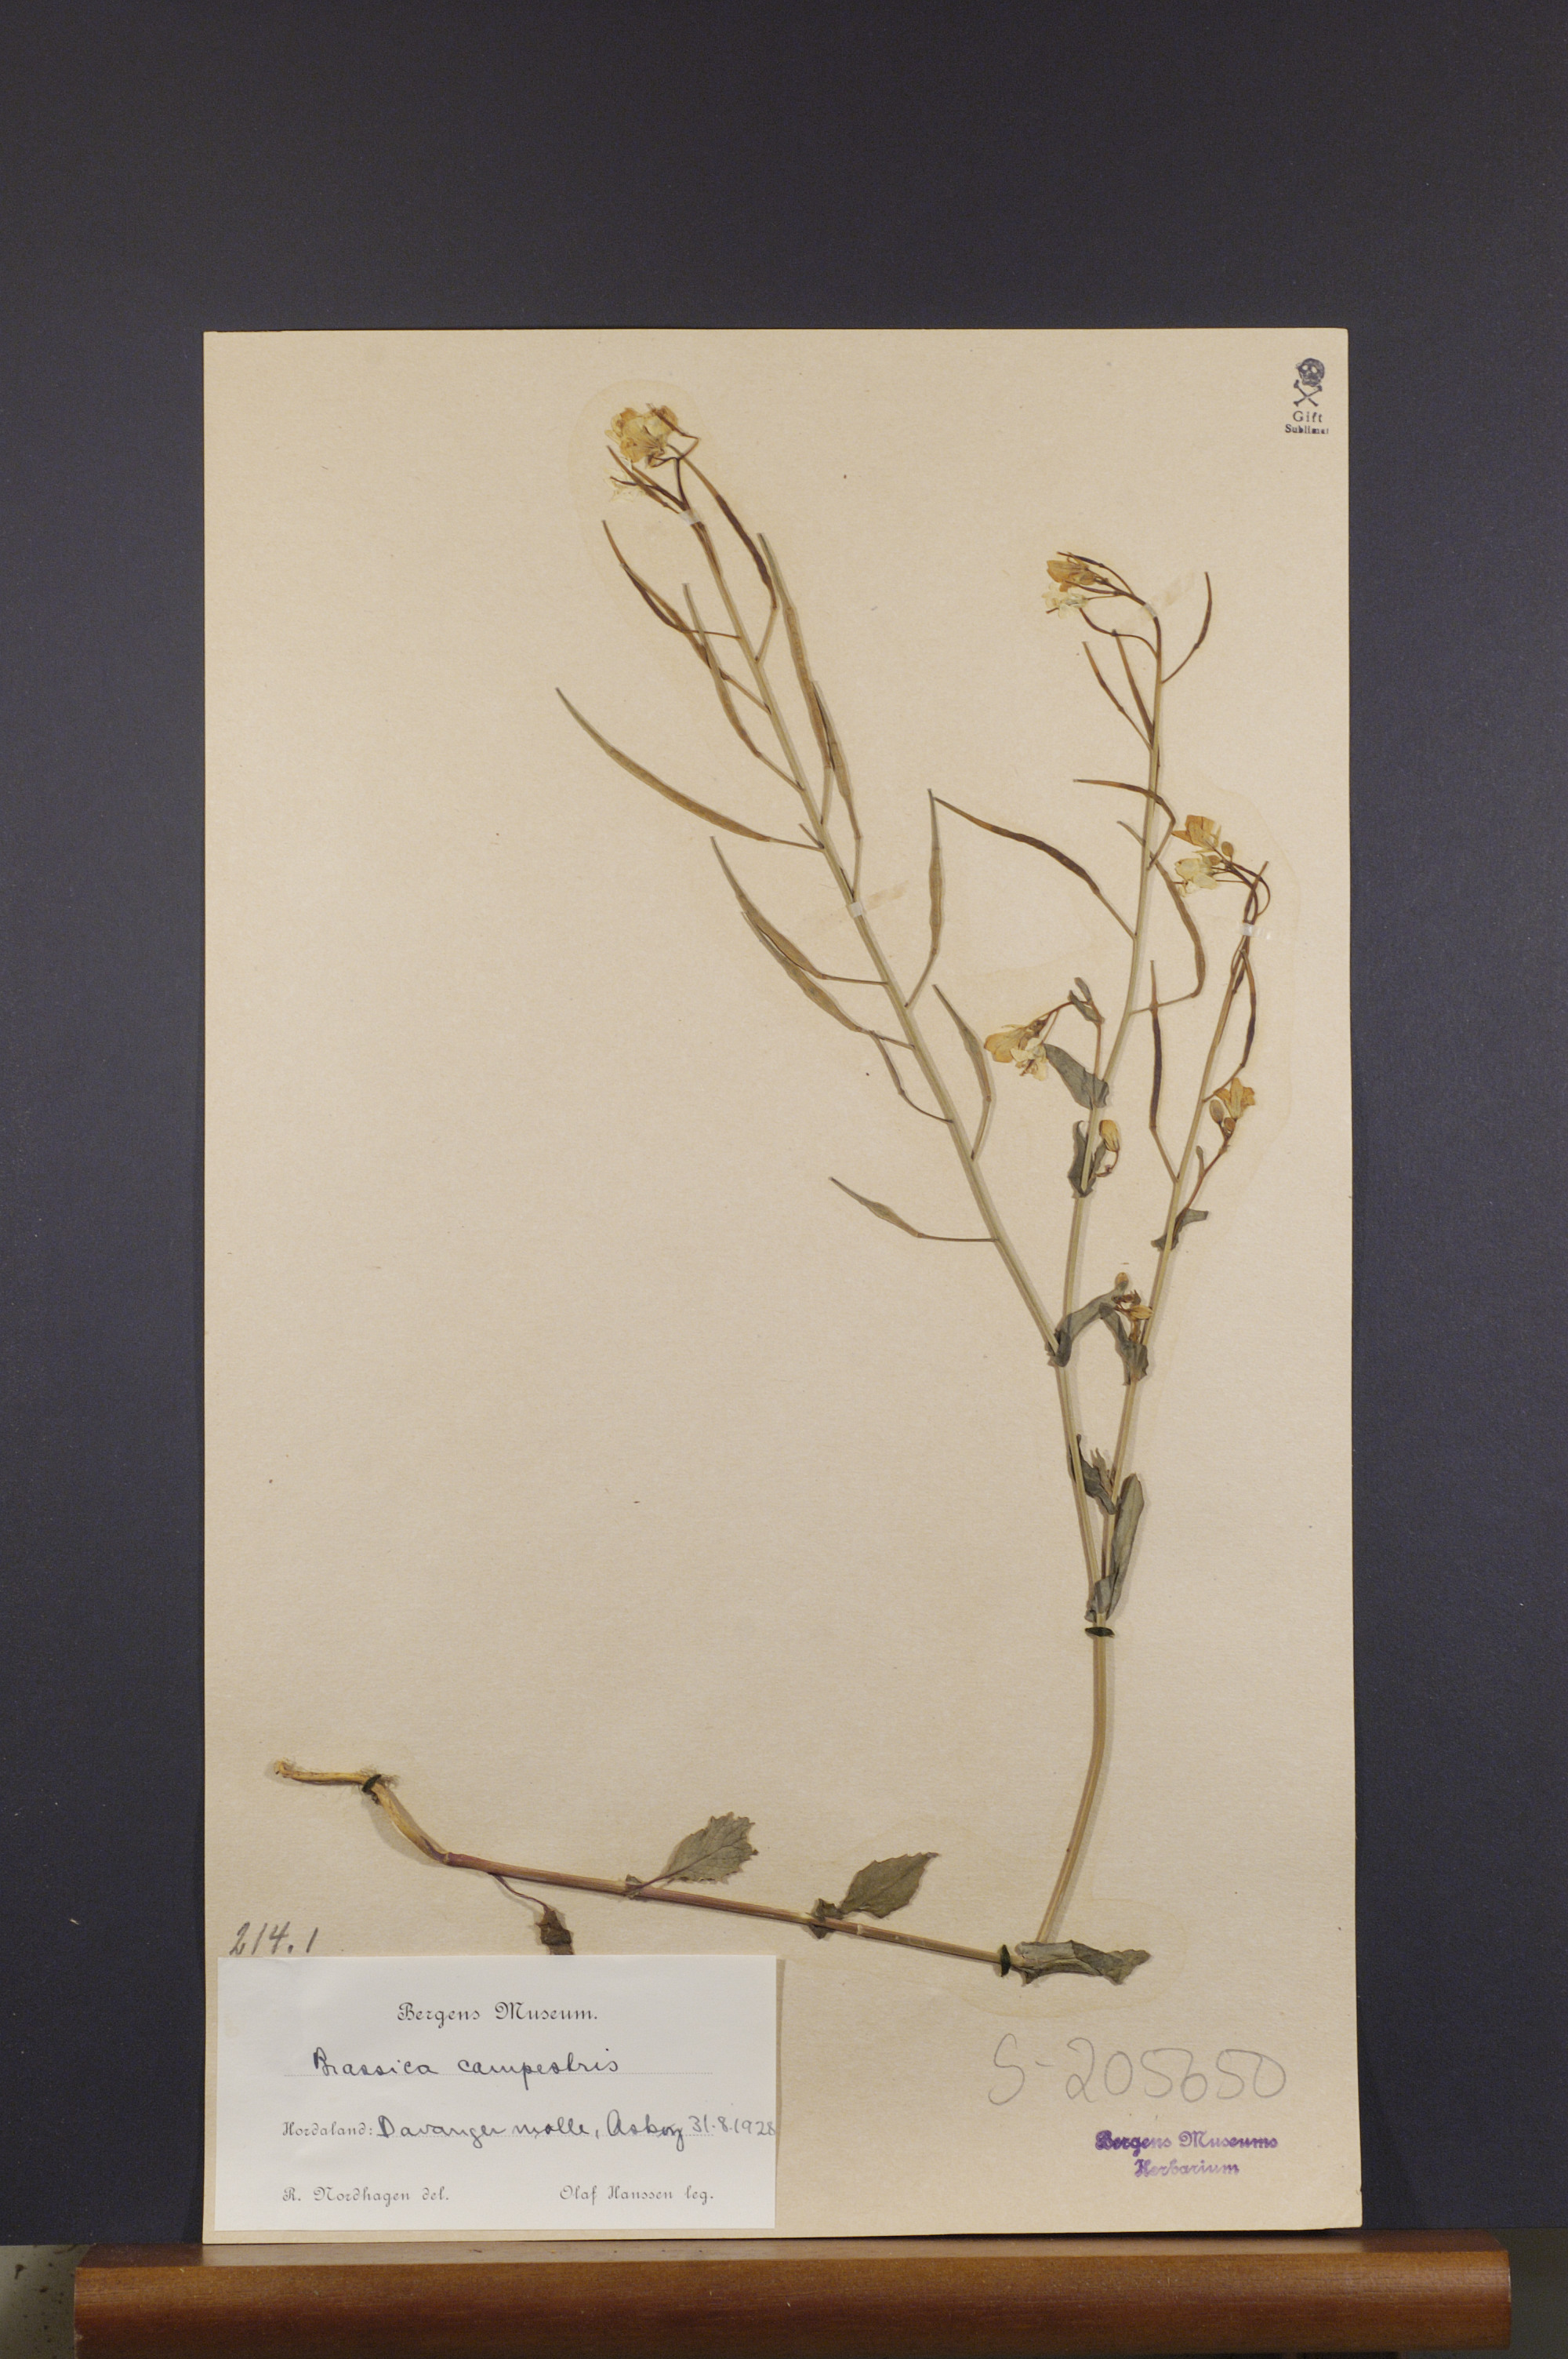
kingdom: Plantae
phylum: Tracheophyta
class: Magnoliopsida
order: Brassicales
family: Brassicaceae
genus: Brassica
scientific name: Brassica rapa
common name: Field mustard
